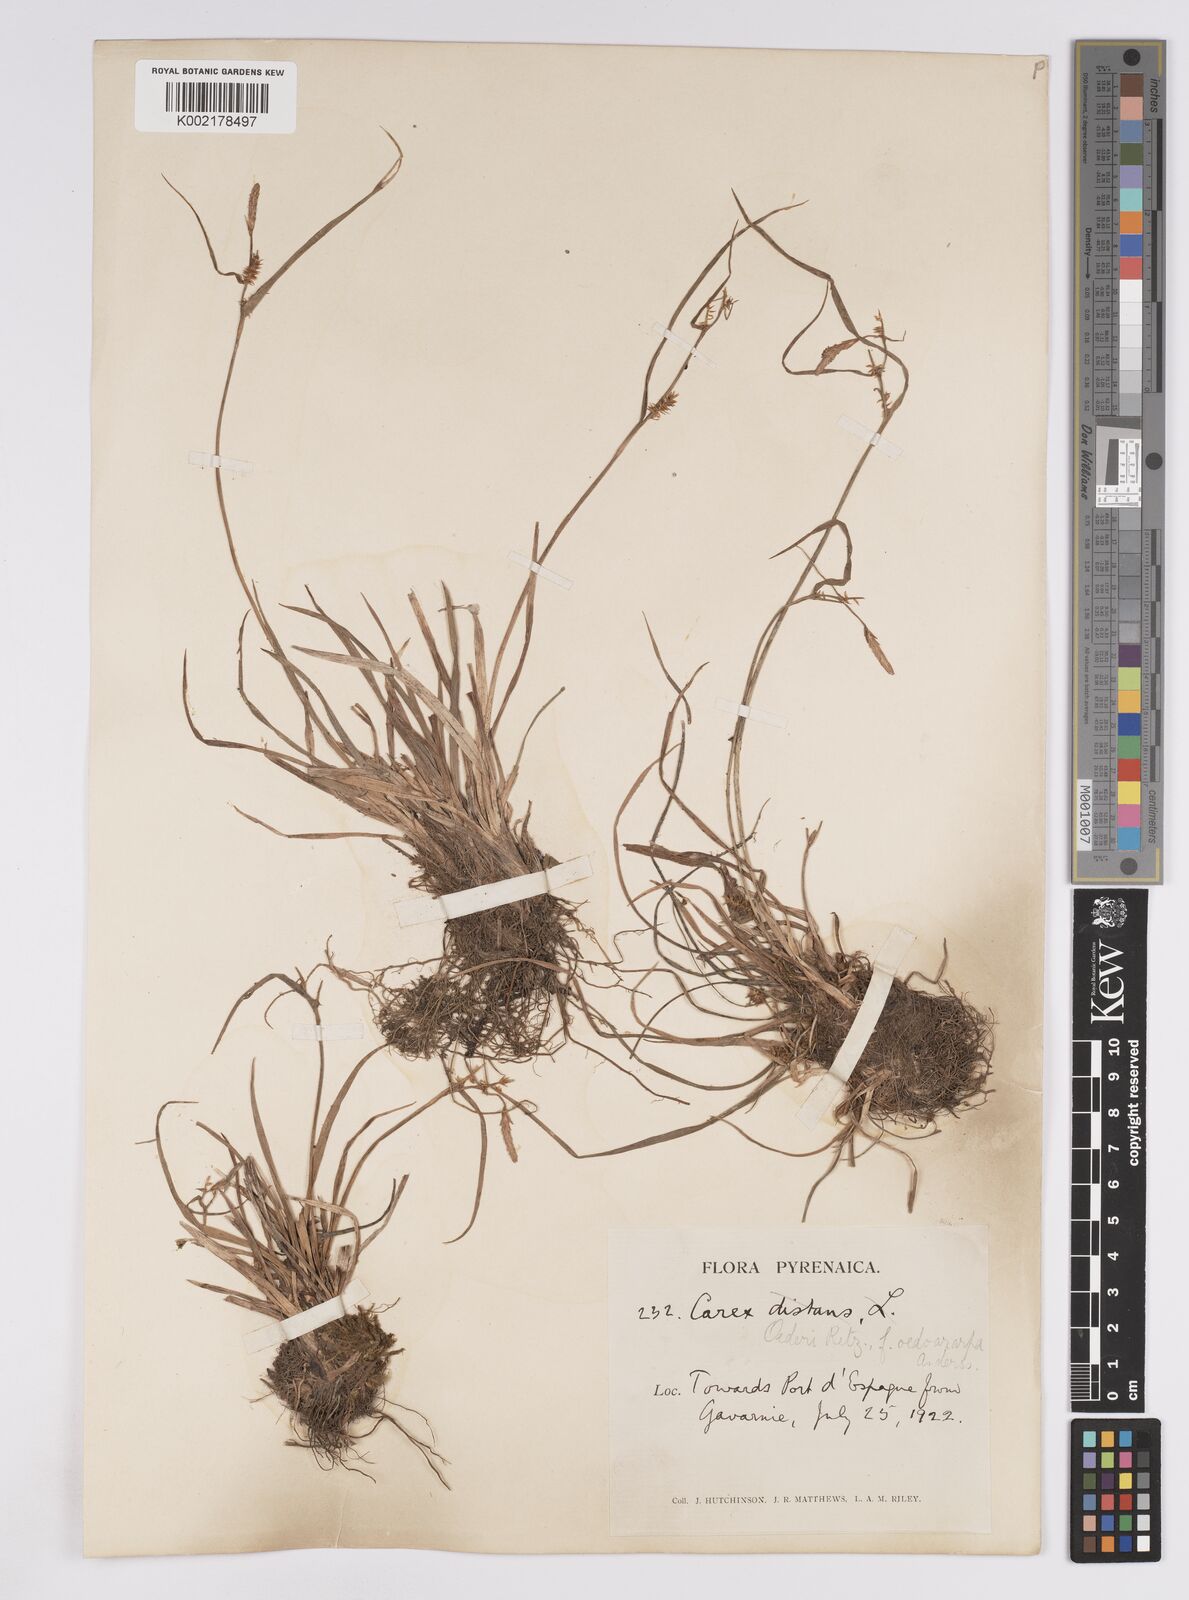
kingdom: Plantae
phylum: Tracheophyta
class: Liliopsida
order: Poales
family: Cyperaceae
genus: Carex
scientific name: Carex demissa
